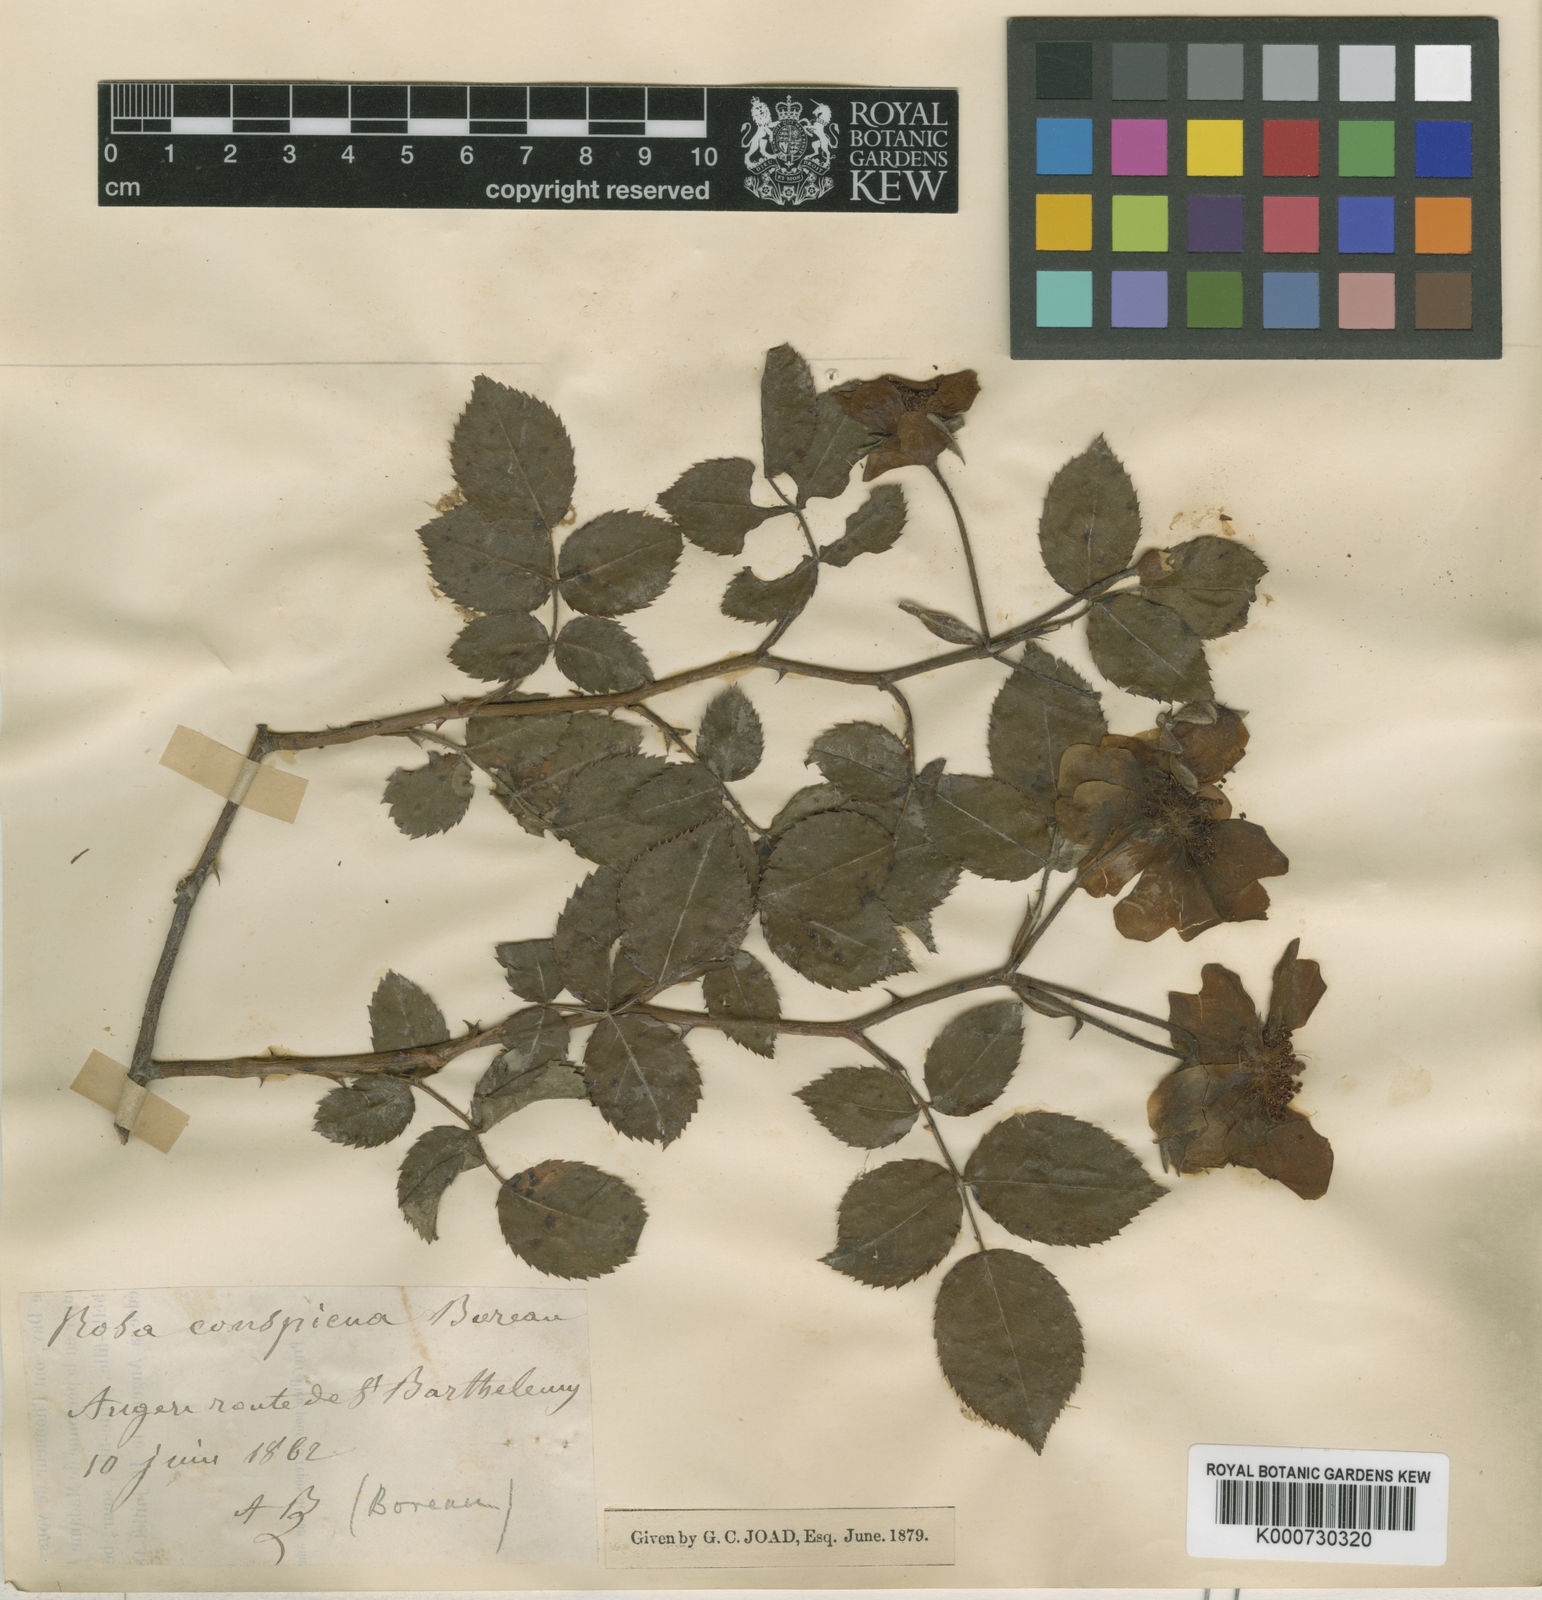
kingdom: Plantae
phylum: Tracheophyta
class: Magnoliopsida
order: Rosales
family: Rosaceae
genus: Rosa
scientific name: Rosa
